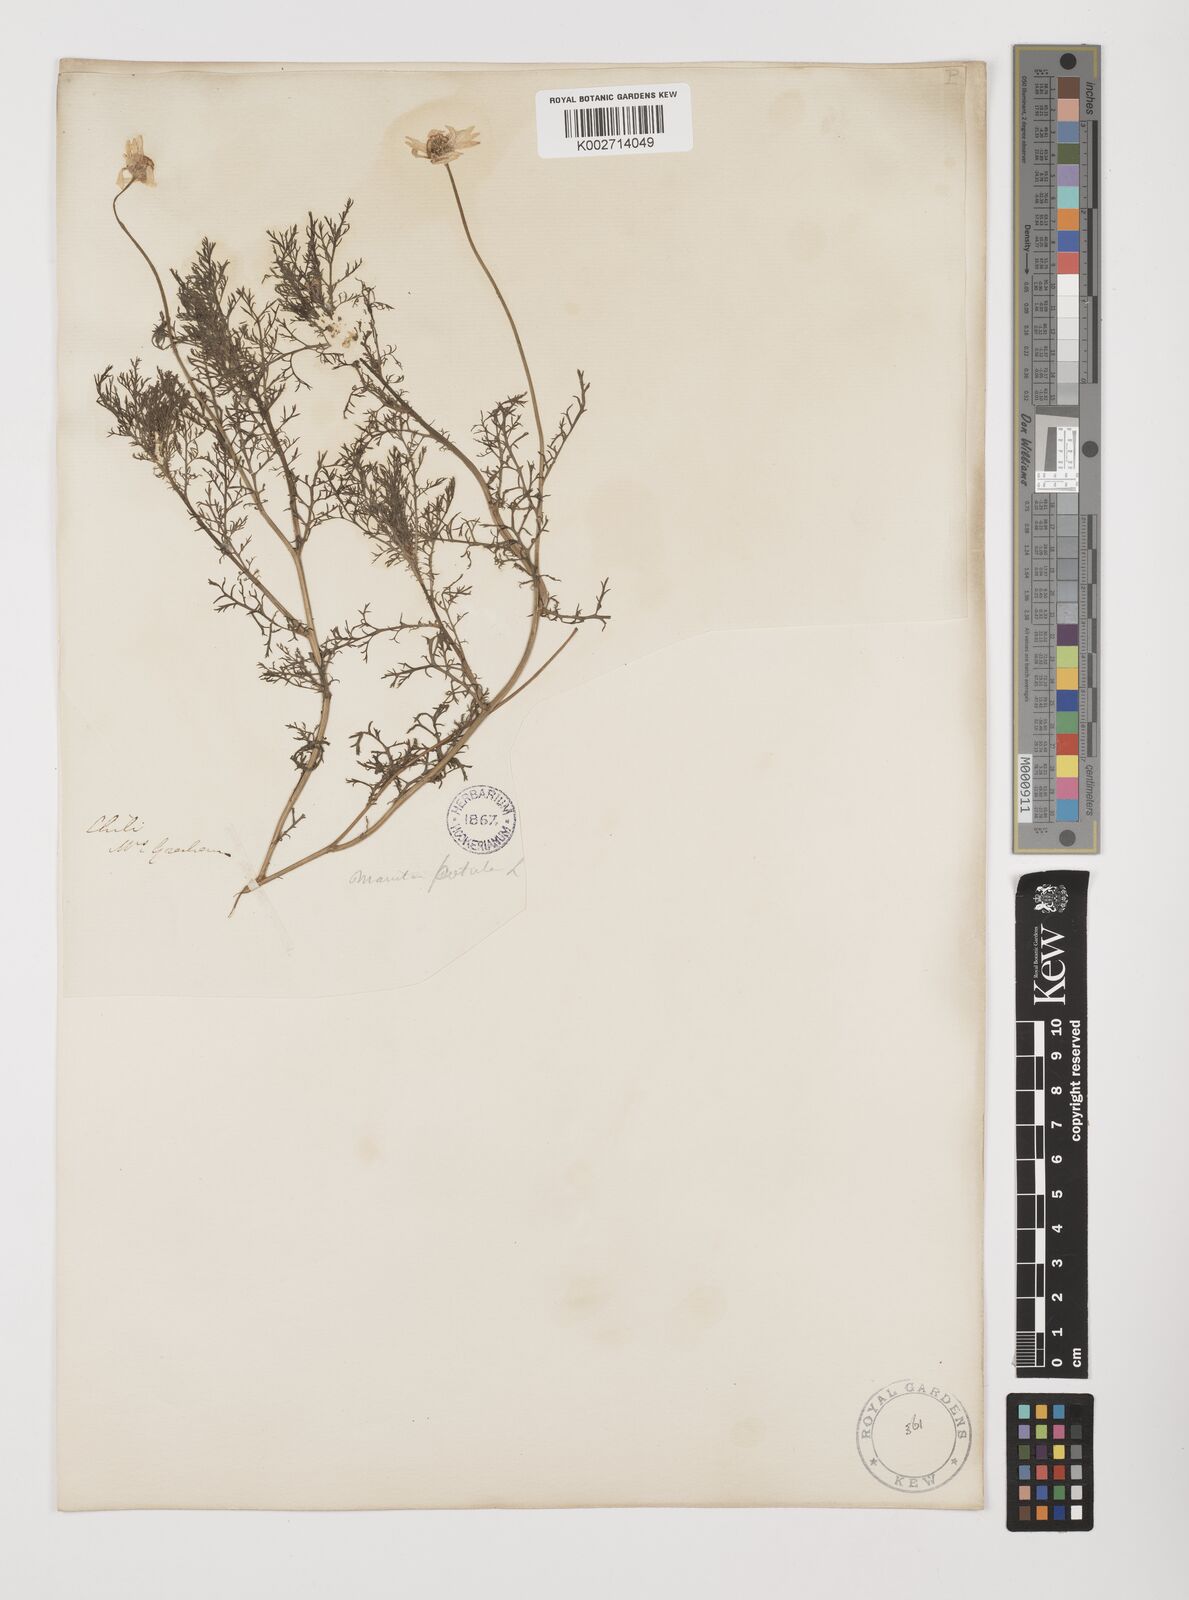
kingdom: Plantae
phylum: Tracheophyta
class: Magnoliopsida
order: Asterales
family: Asteraceae
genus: Anthemis
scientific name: Anthemis cotula
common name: Stinking chamomile
